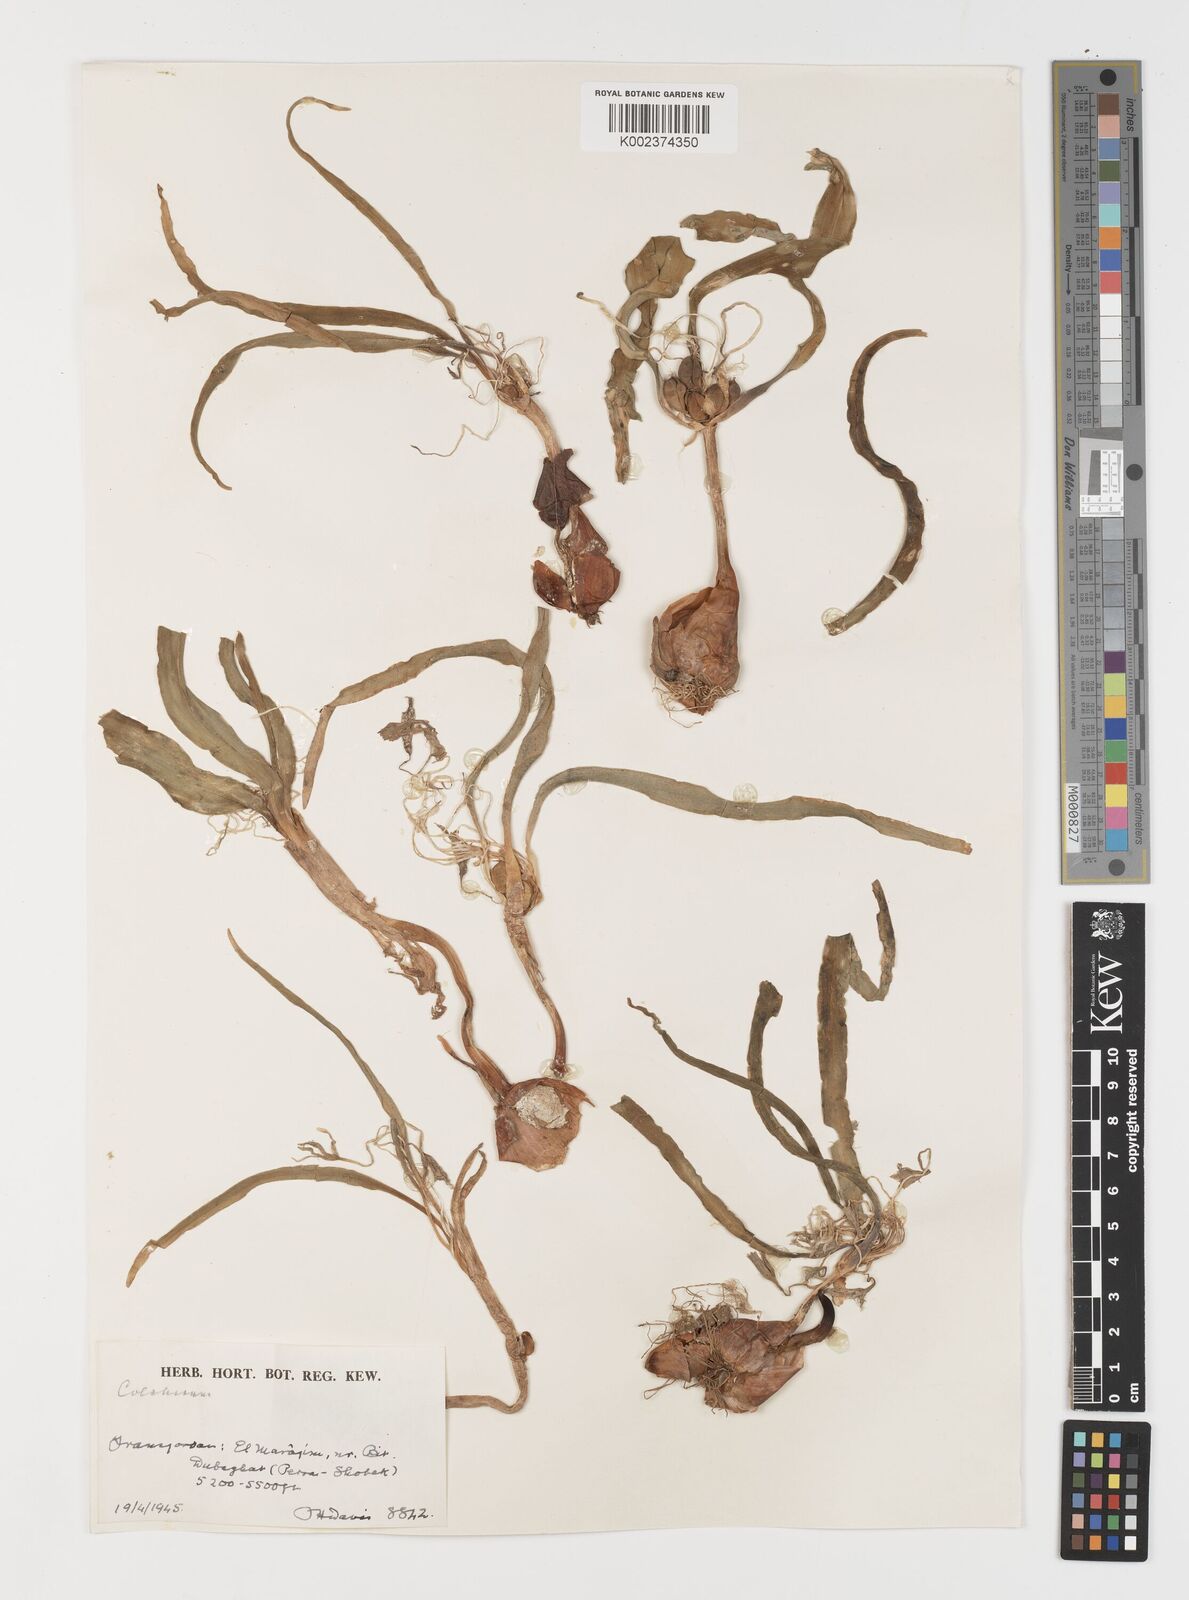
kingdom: Plantae
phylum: Tracheophyta
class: Liliopsida
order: Liliales
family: Colchicaceae
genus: Colchicum
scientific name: Colchicum
